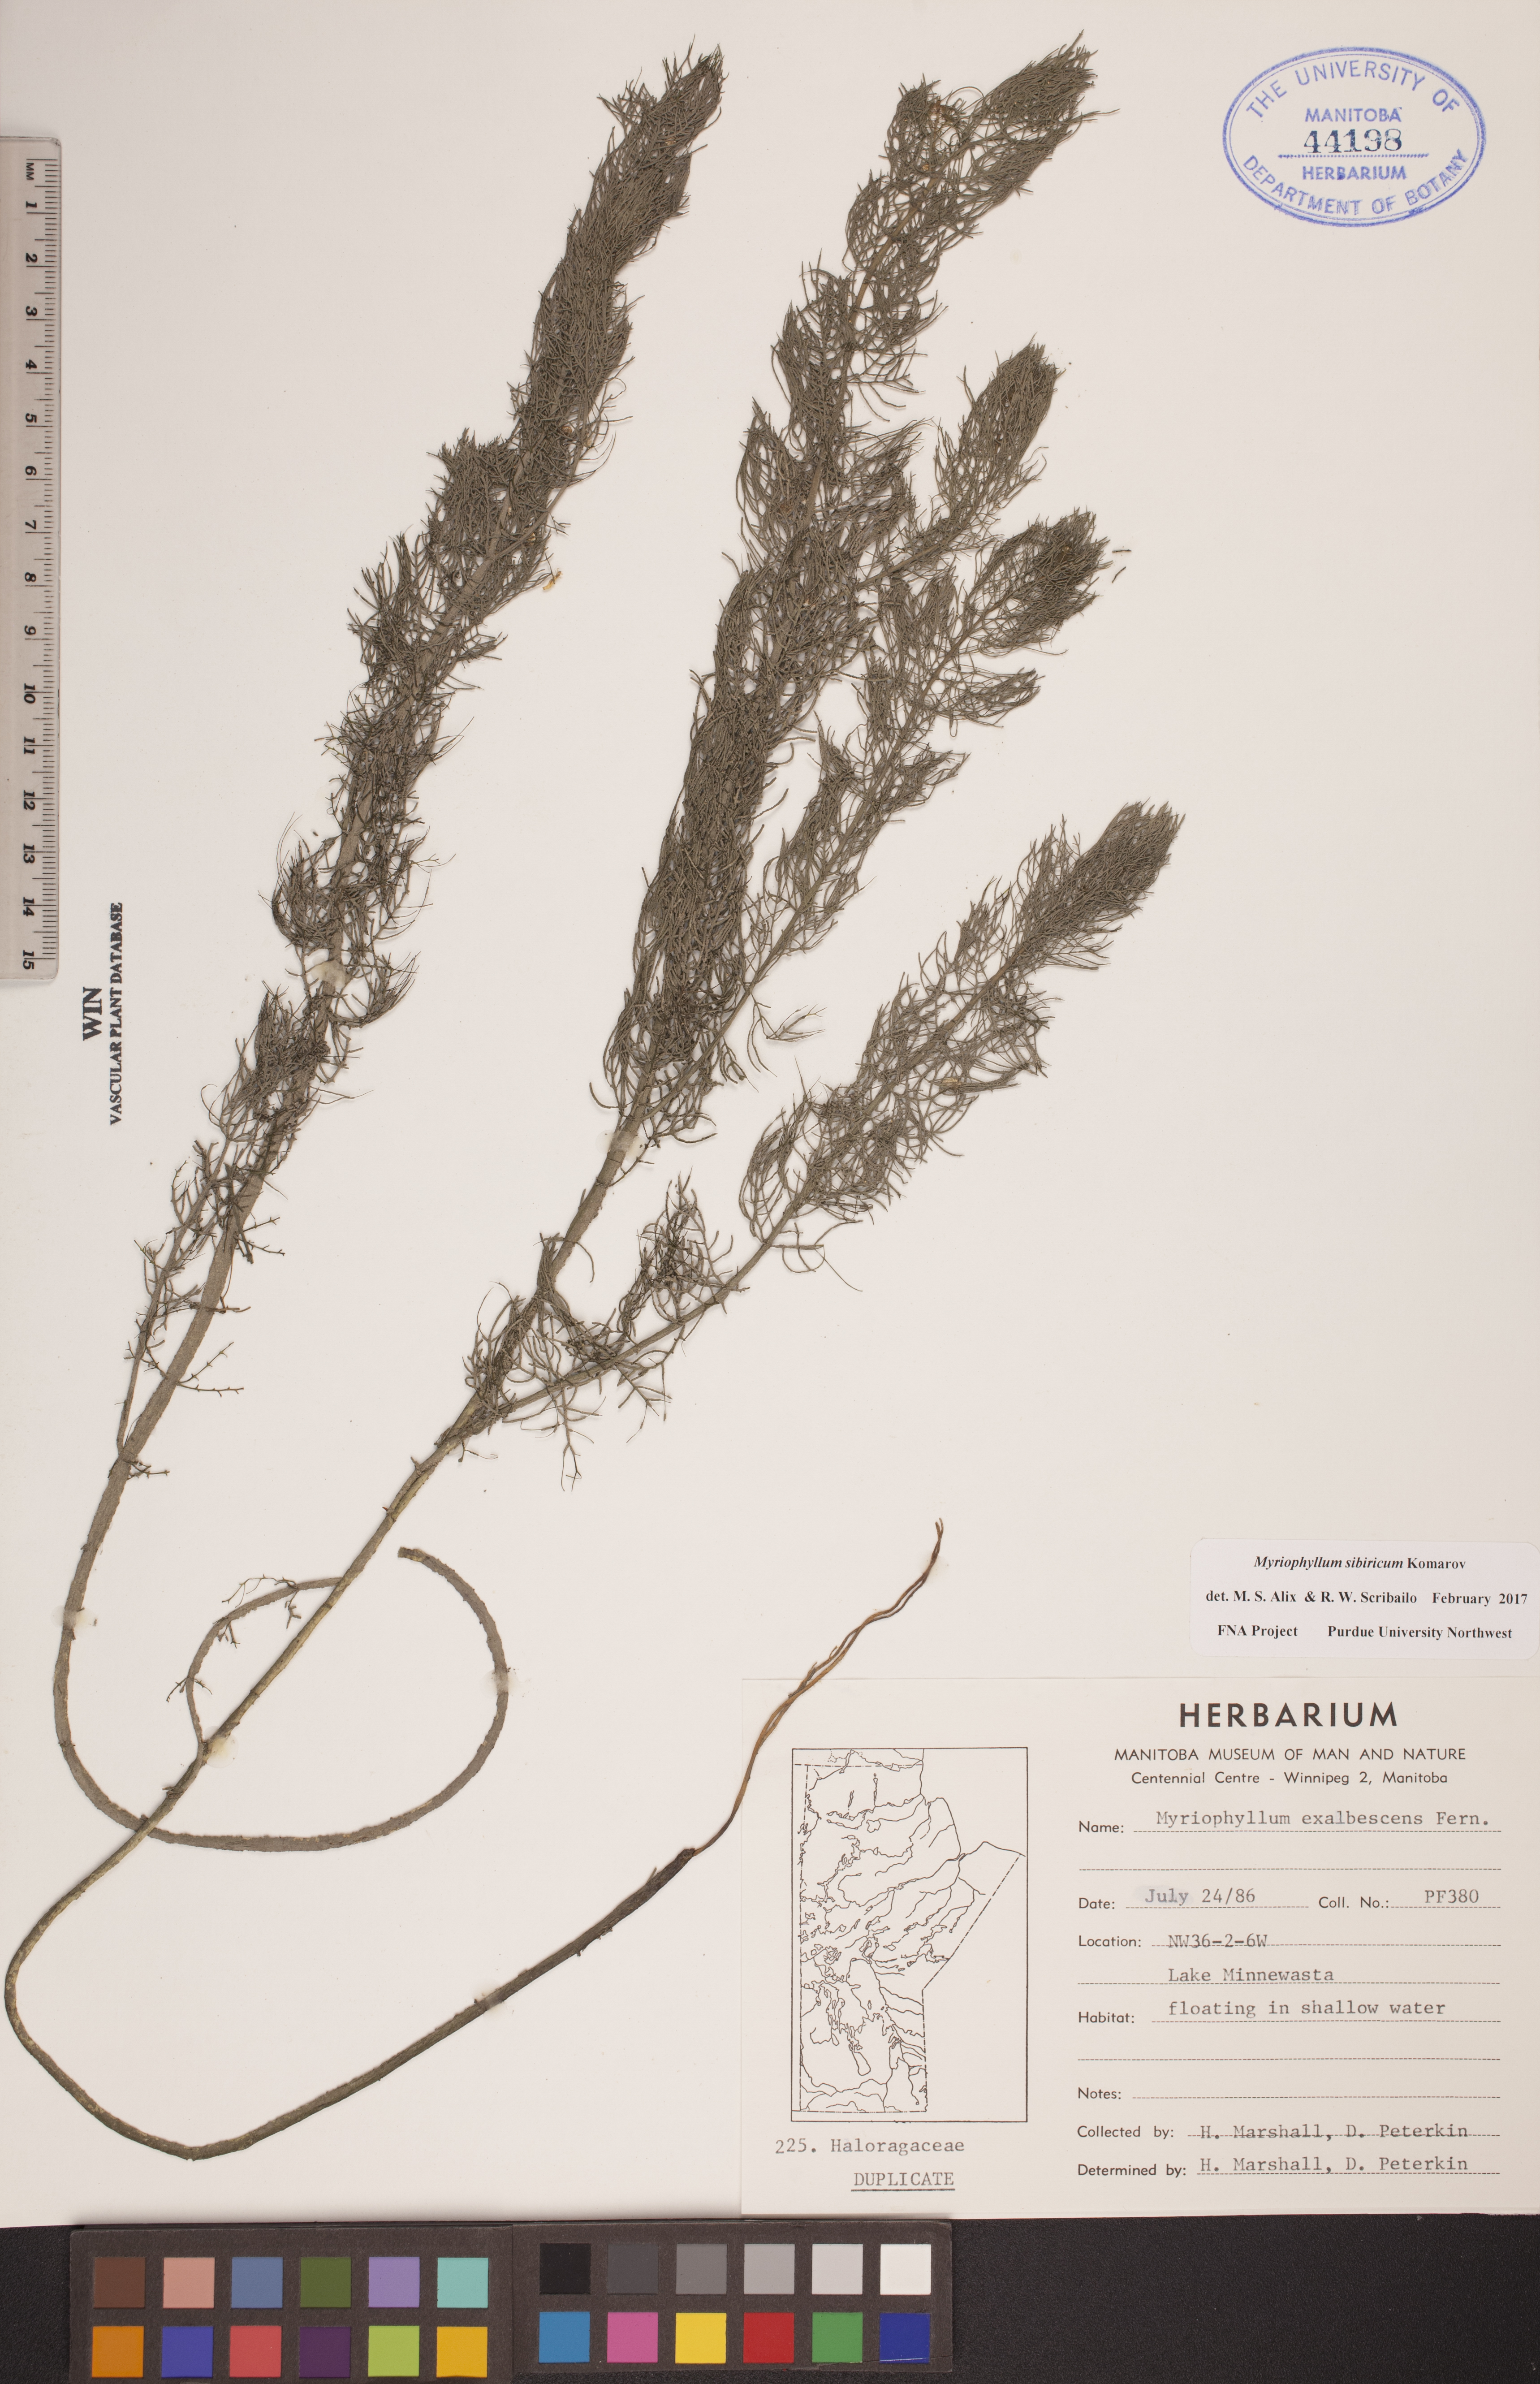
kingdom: Plantae
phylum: Tracheophyta
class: Magnoliopsida
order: Saxifragales
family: Haloragaceae
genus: Myriophyllum
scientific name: Myriophyllum sibiricum
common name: Siberian water-milfoil
